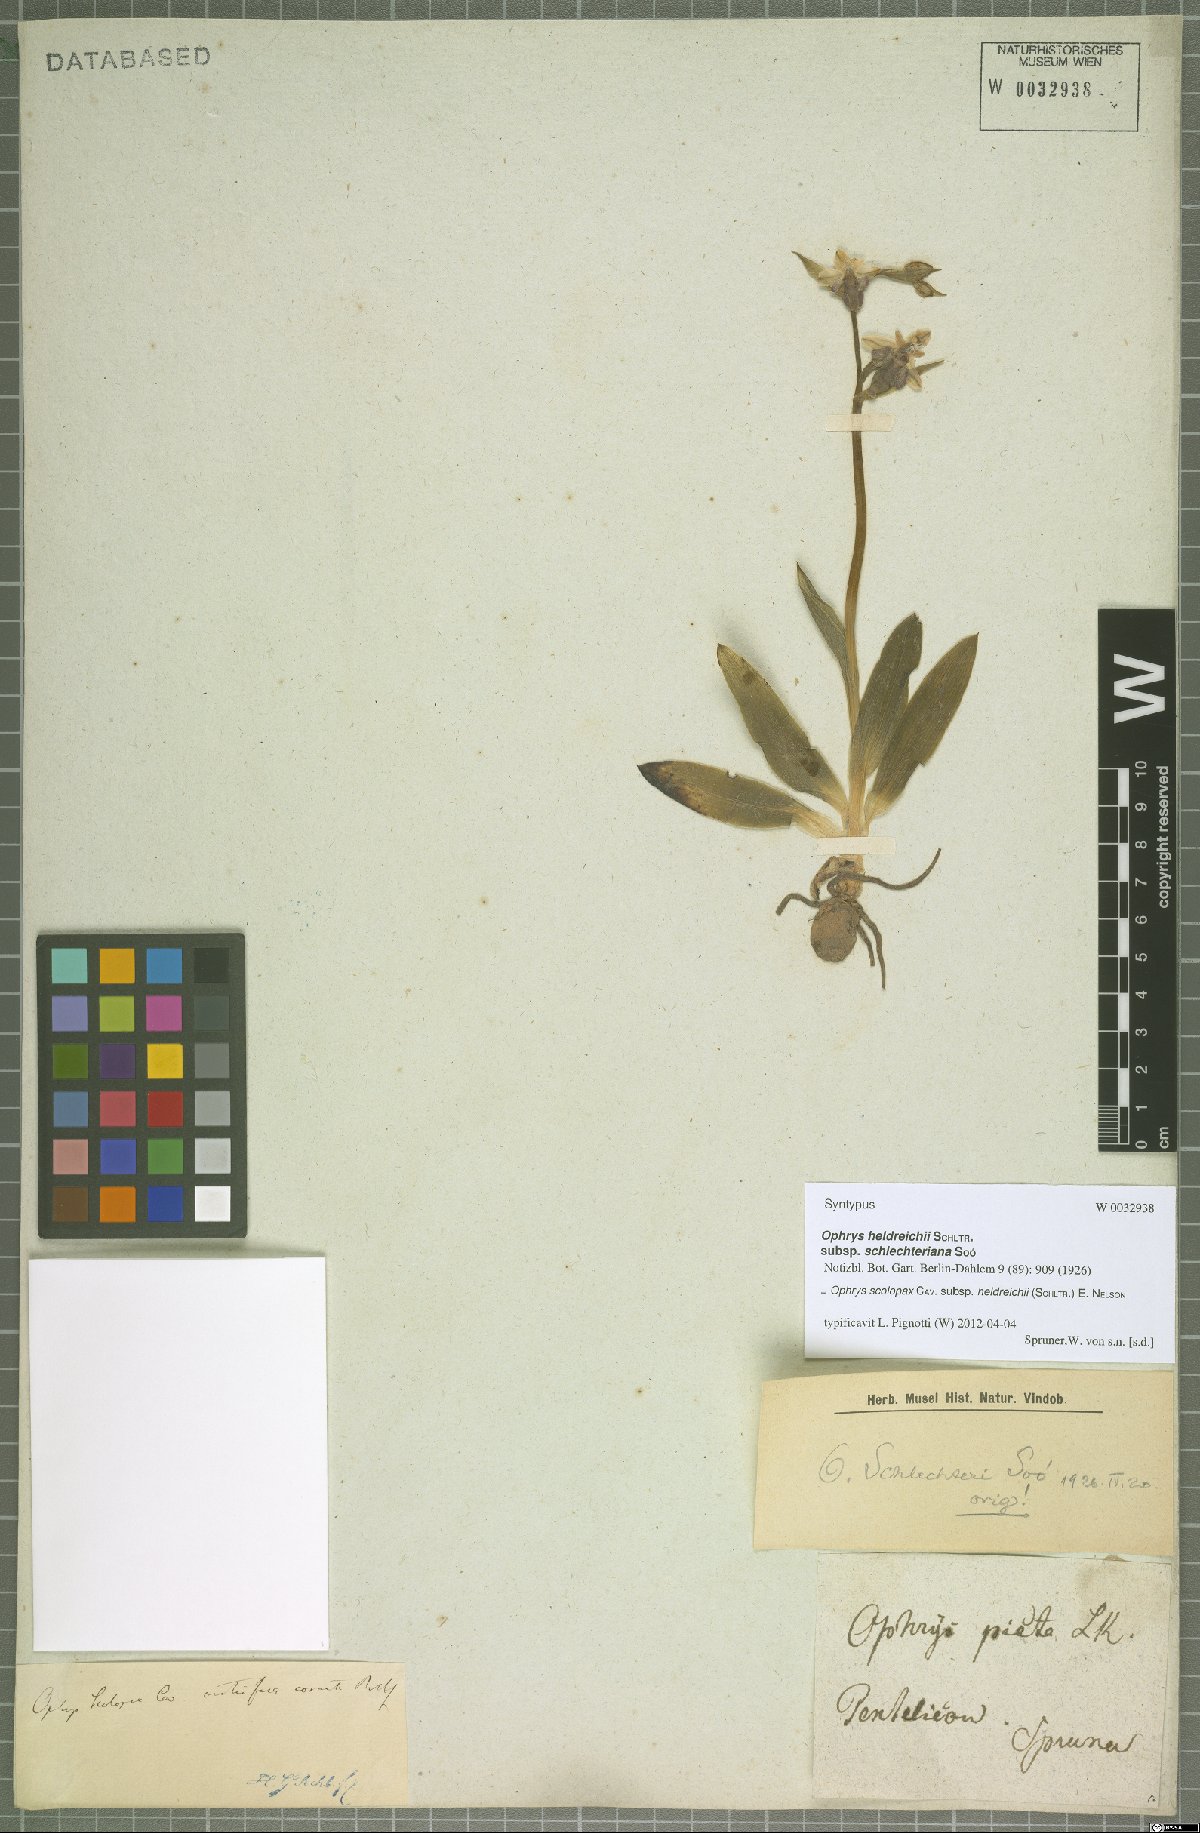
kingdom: Plantae
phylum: Tracheophyta
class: Liliopsida
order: Asparagales
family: Orchidaceae
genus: Ophrys
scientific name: Ophrys scolopax
